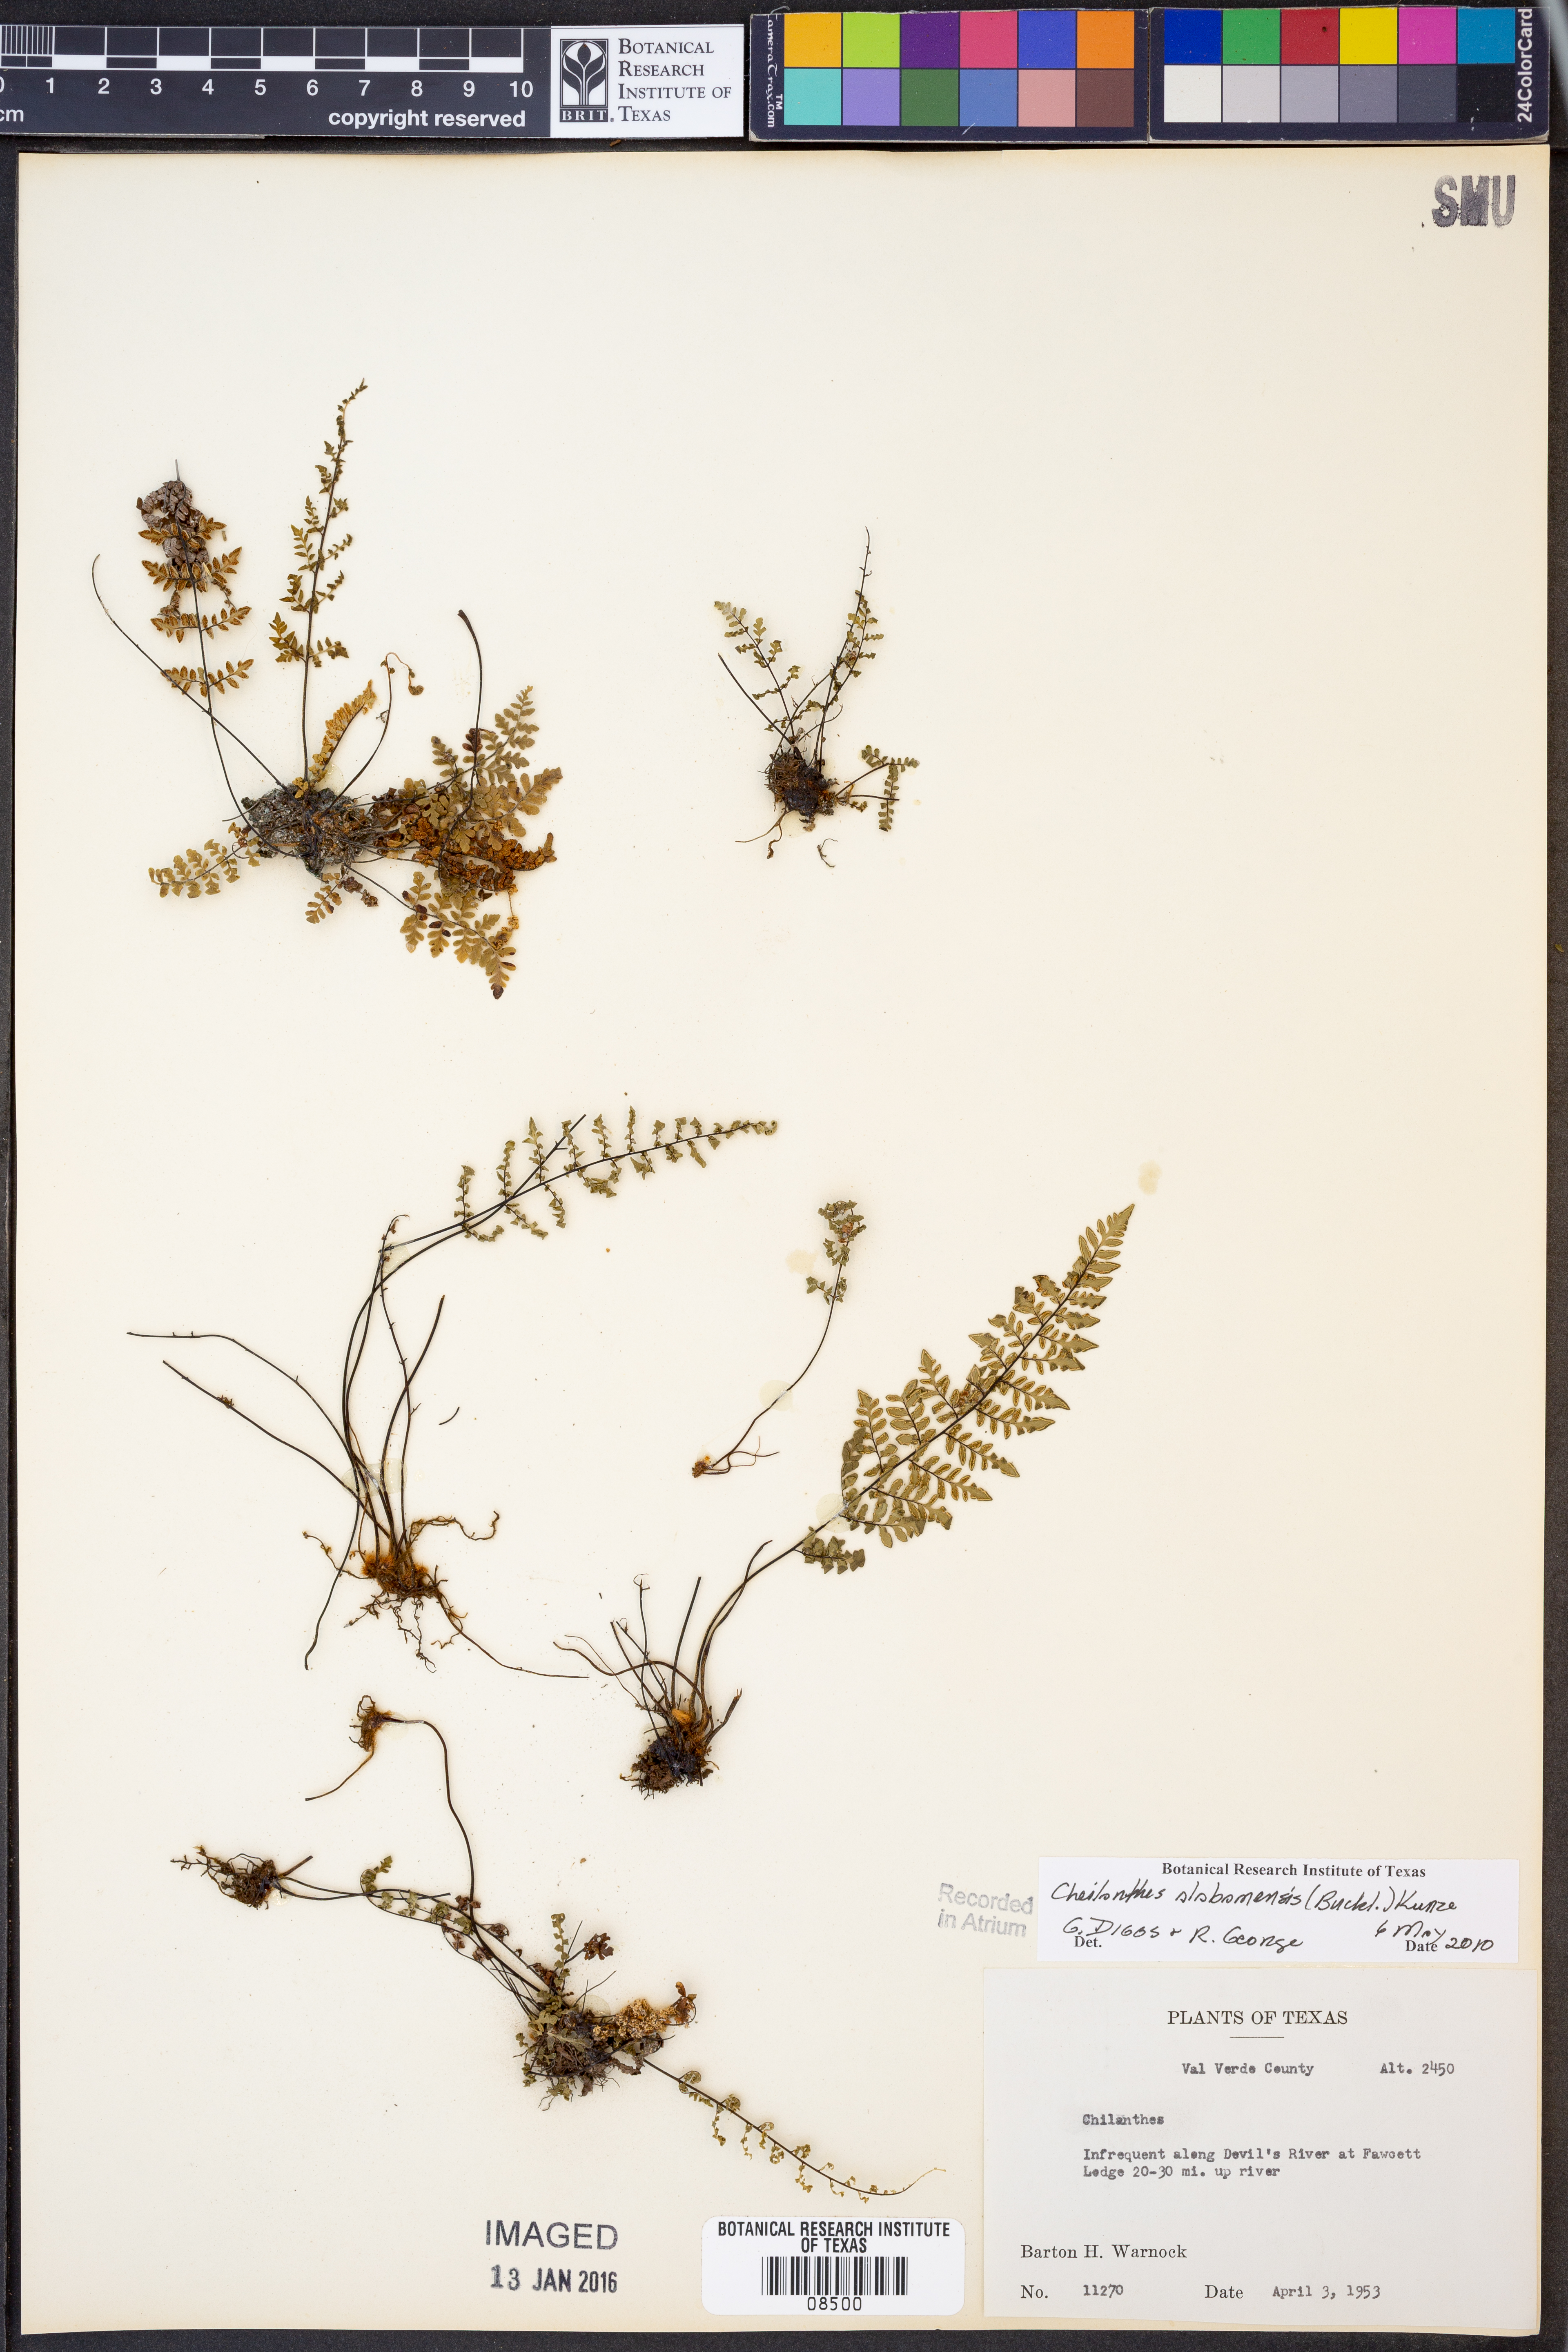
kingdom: Plantae
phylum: Tracheophyta
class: Polypodiopsida
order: Polypodiales
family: Pteridaceae
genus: Myriopteris
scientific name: Myriopteris alabamensis
